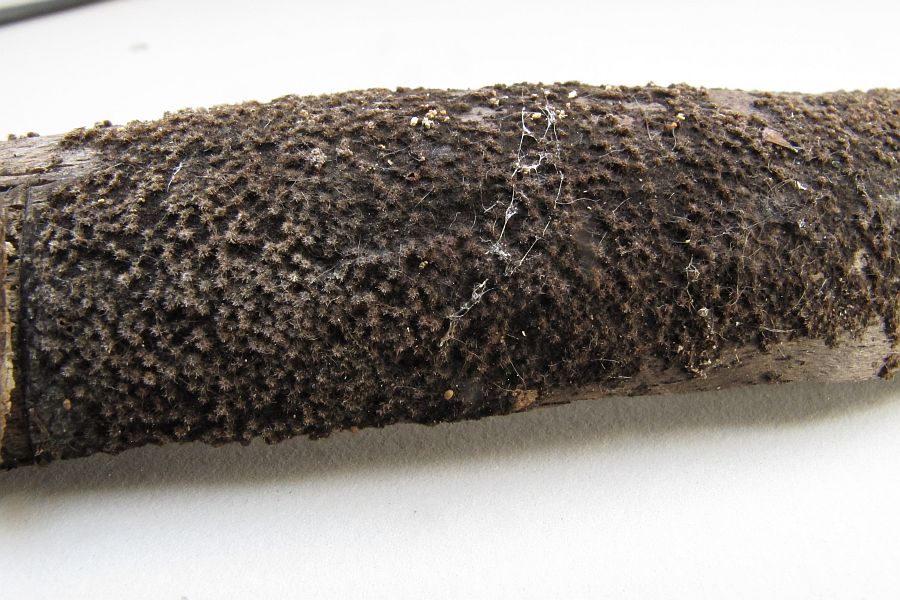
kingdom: Fungi
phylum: Ascomycota
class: Sordariomycetes
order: Sordariales
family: Helminthosphaeriaceae
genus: Echinosphaeria
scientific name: Echinosphaeria strigosa
